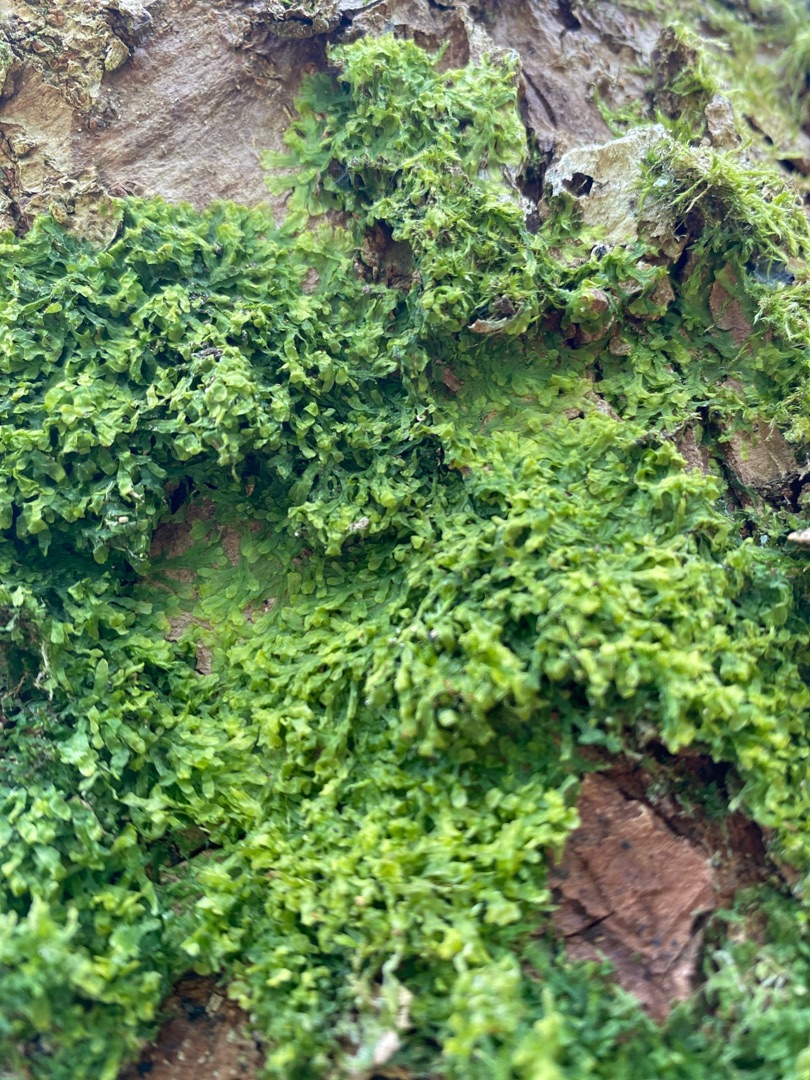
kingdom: Plantae
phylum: Marchantiophyta
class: Jungermanniopsida
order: Metzgeriales
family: Metzgeriaceae
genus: Metzgeria
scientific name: Metzgeria furcata
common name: Almindelig gaffelløv
